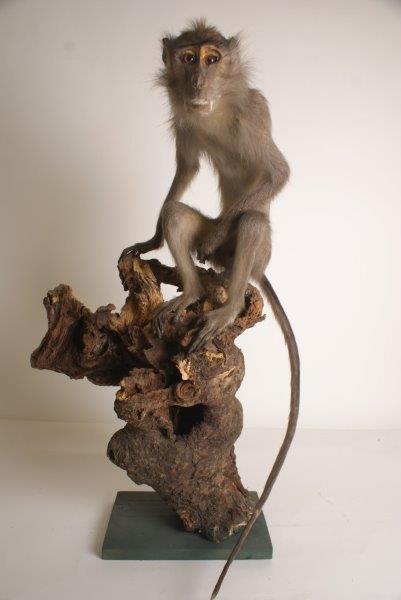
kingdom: Animalia
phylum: Chordata
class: Mammalia
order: Primates
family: Cercopithecidae
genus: Cercopithecus
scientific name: Cercopithecus
